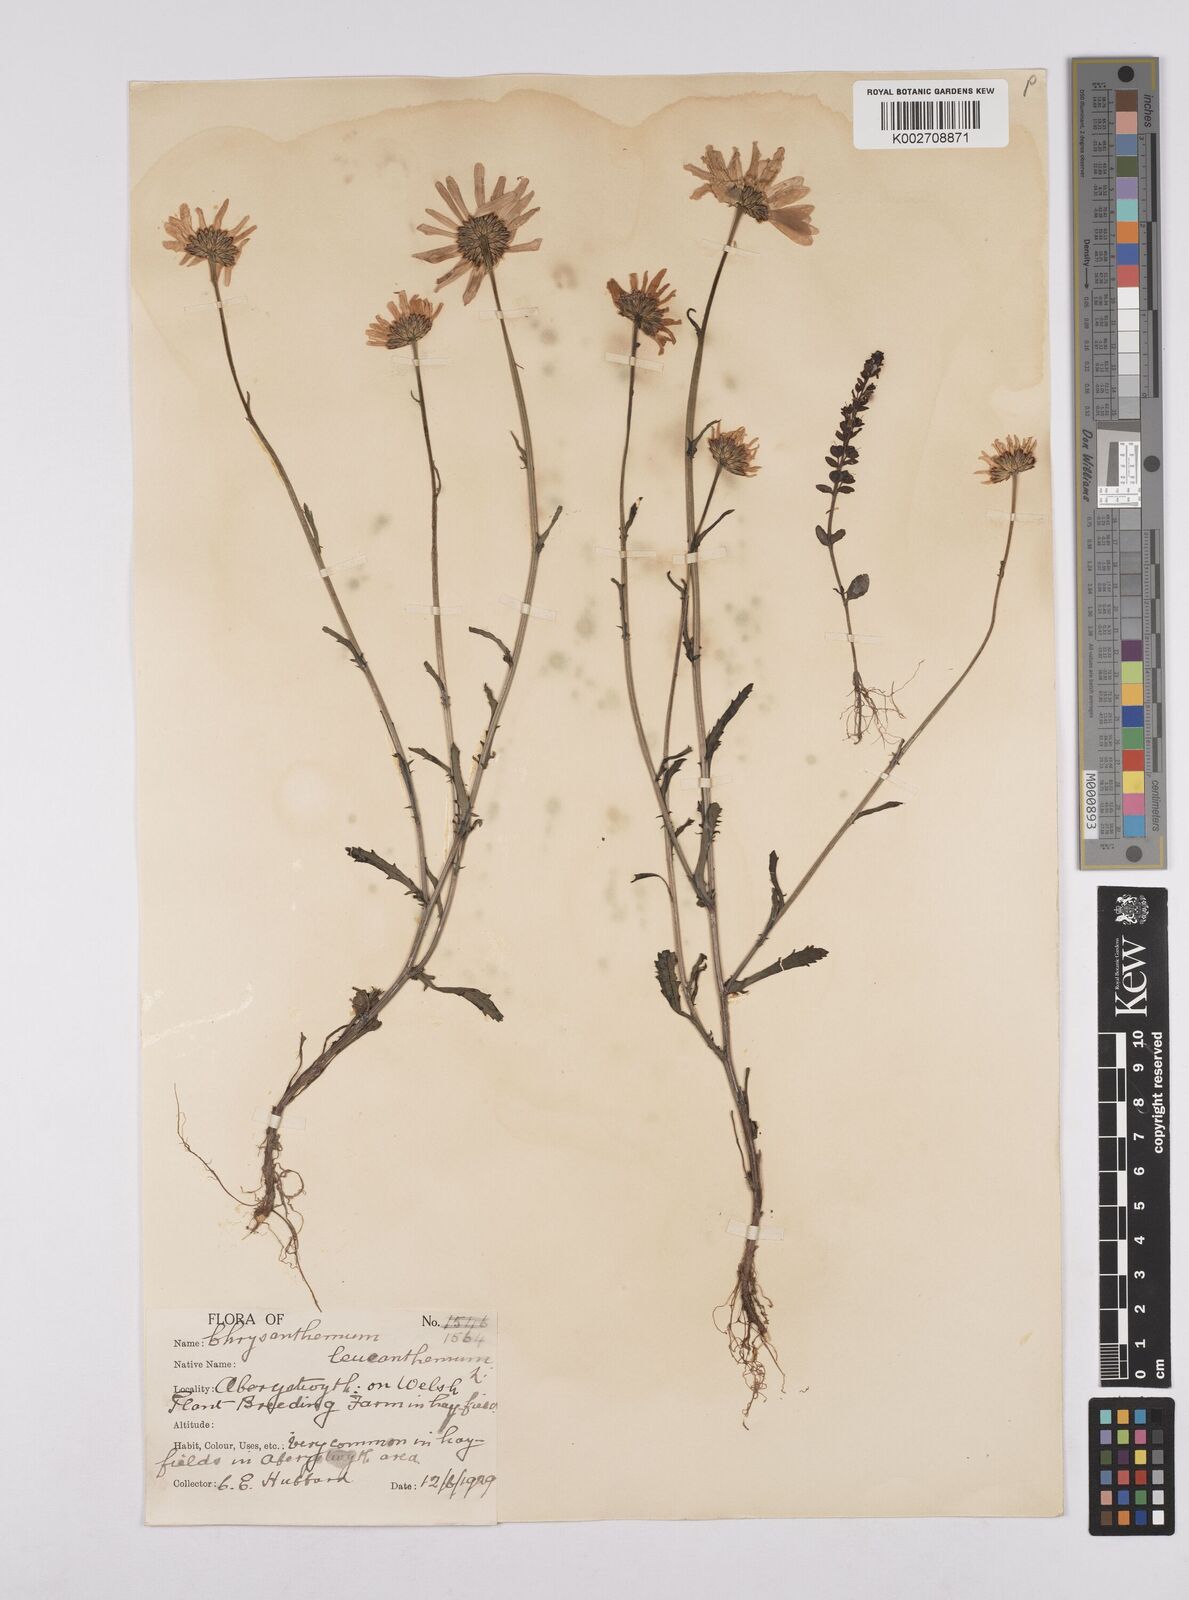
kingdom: Plantae
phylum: Tracheophyta
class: Magnoliopsida
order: Asterales
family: Asteraceae
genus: Leucanthemum
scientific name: Leucanthemum
